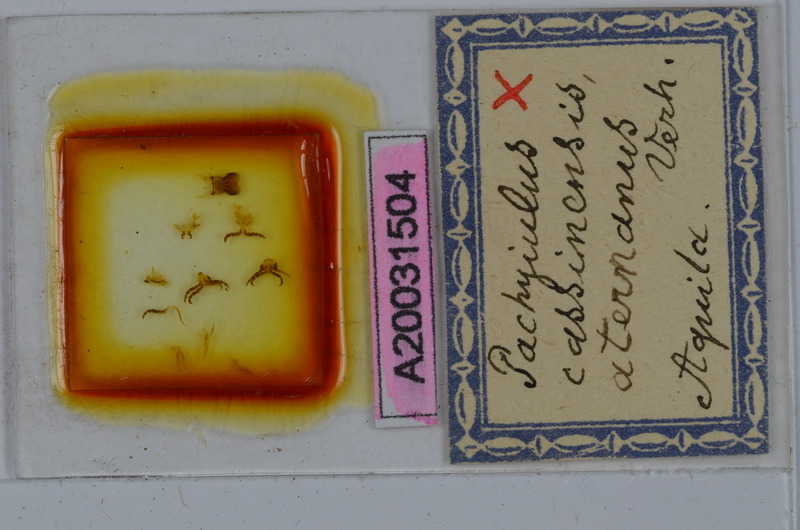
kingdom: Animalia
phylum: Arthropoda
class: Diplopoda
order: Julida
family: Julidae
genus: Pachyiulus
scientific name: Pachyiulus cassinensis
